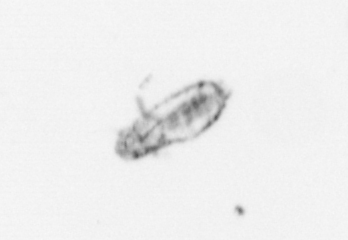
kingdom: Animalia
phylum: Arthropoda
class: Copepoda
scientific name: Copepoda
